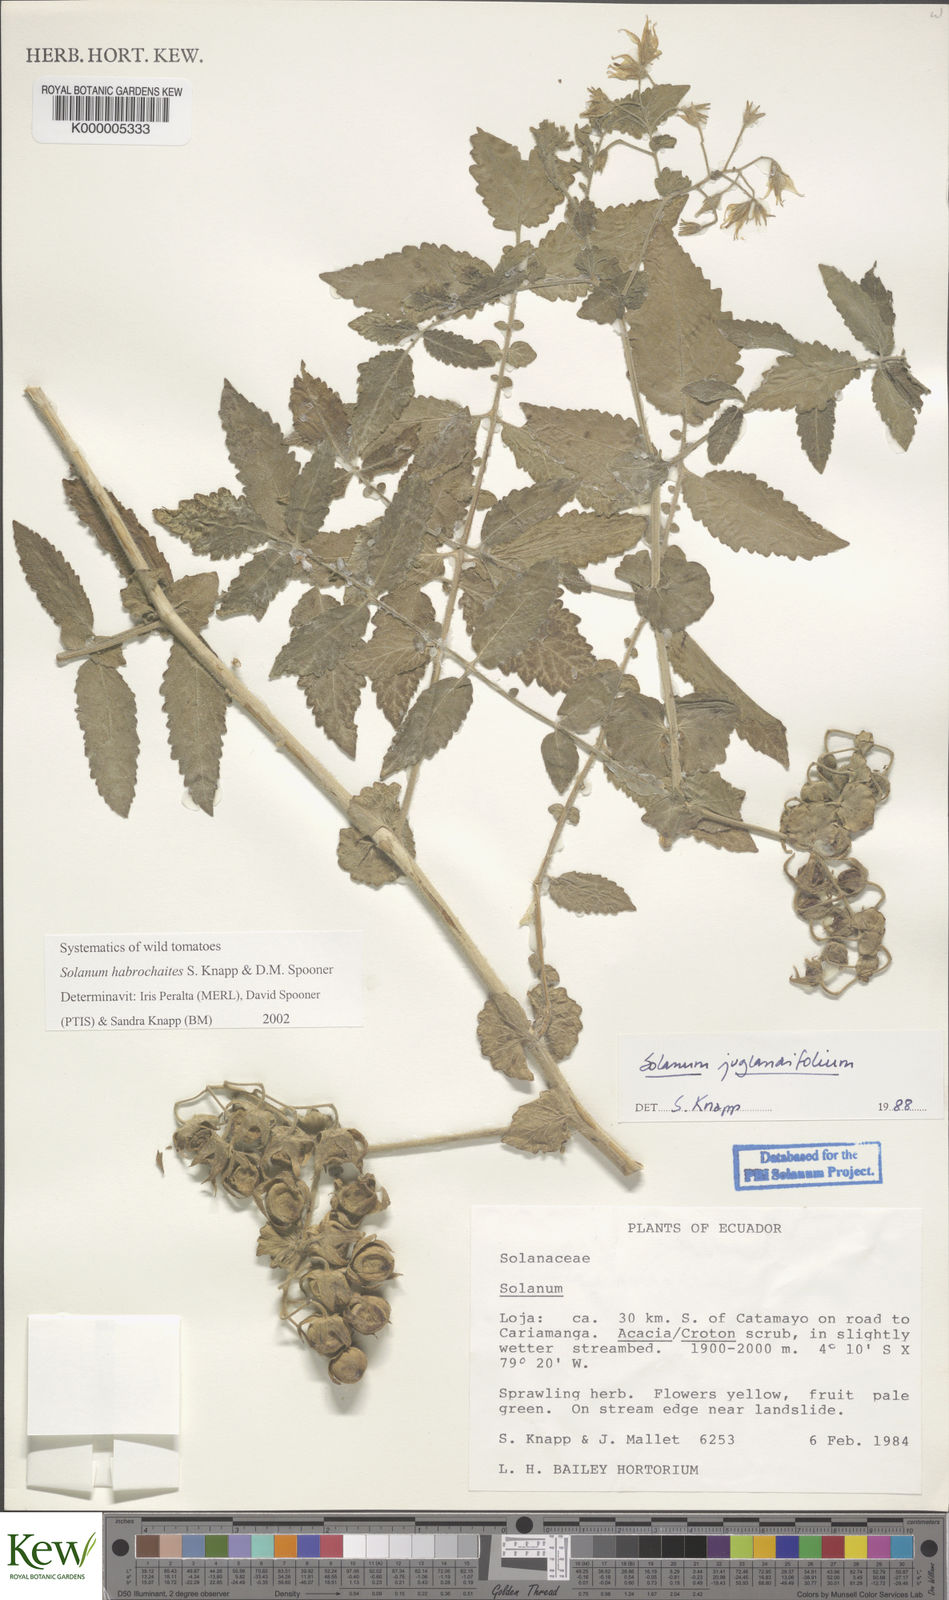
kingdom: Plantae
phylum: Tracheophyta
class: Magnoliopsida
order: Solanales
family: Solanaceae
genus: Solanum
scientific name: Solanum habrochaites
